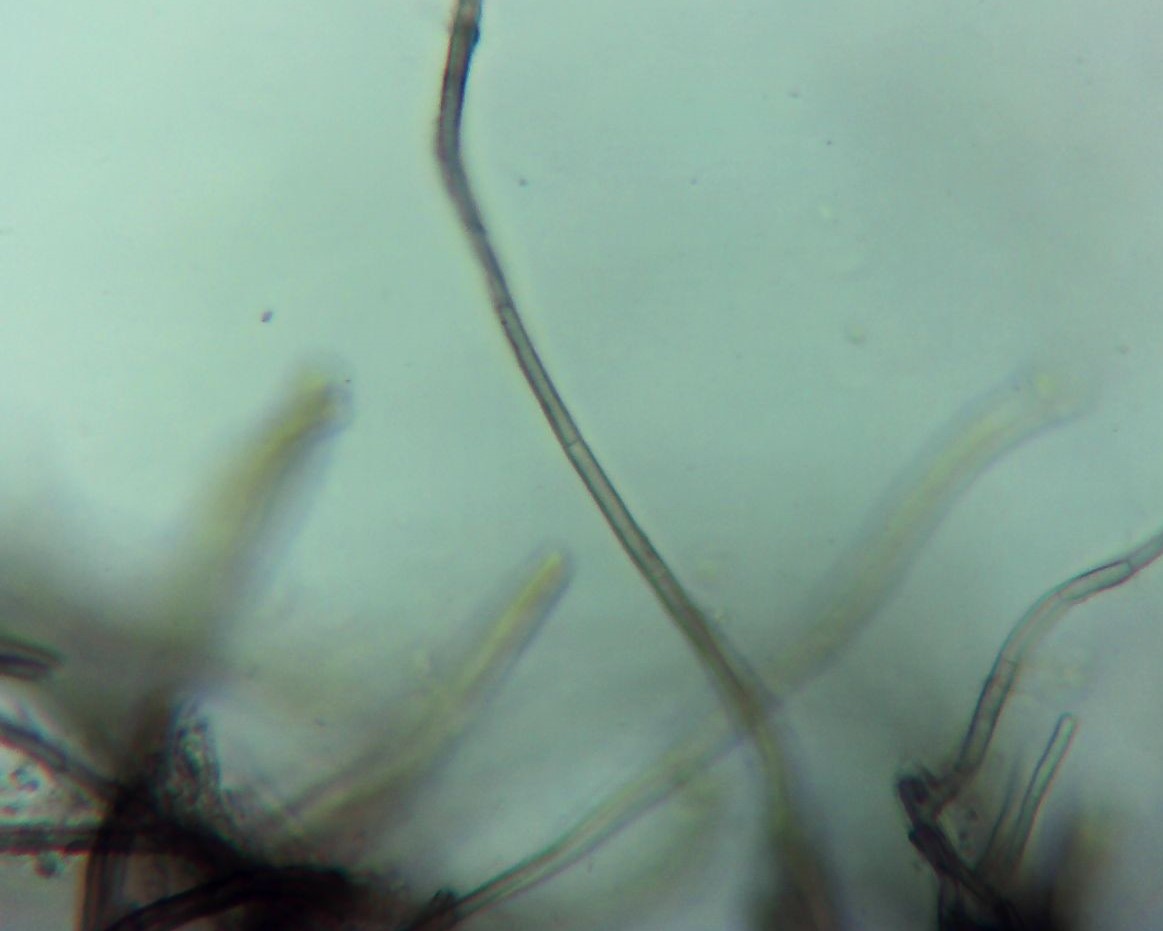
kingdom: Fungi
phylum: Ascomycota
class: Leotiomycetes
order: Helotiales
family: Mollisiaceae
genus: Mollisia
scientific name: Mollisia
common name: gråskive
